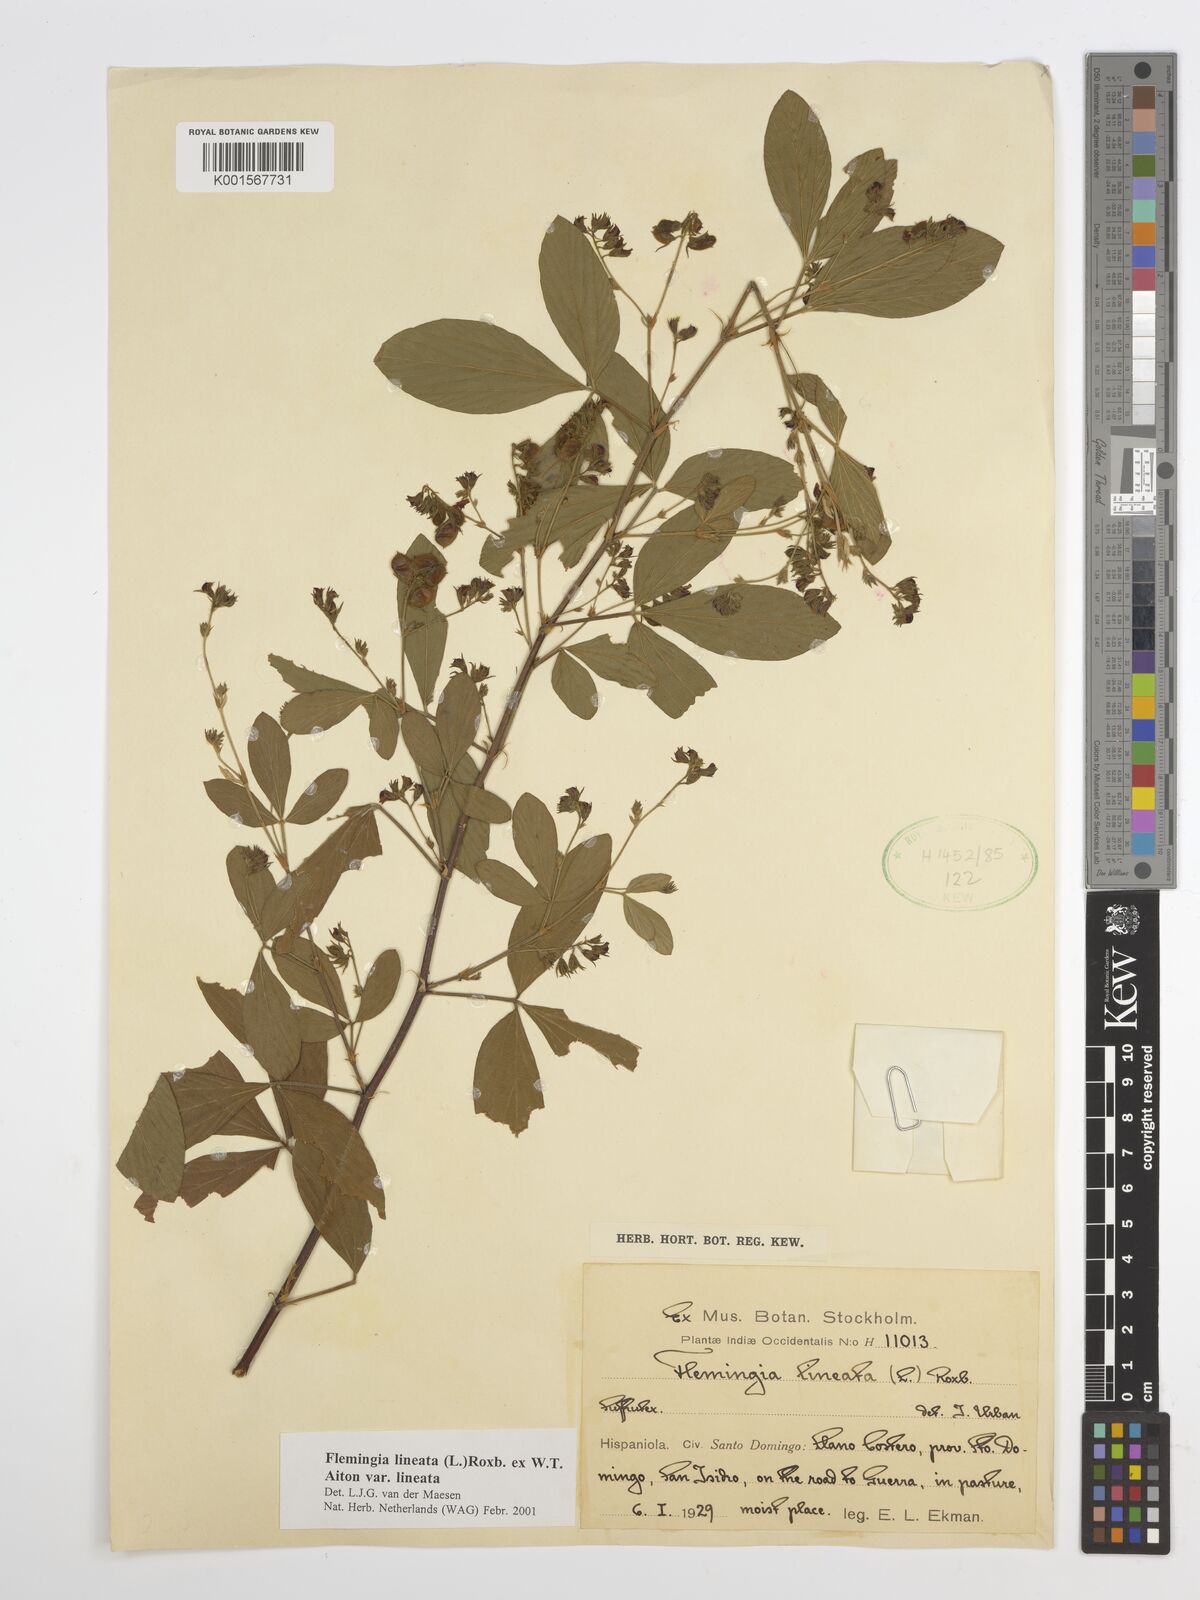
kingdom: Plantae
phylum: Tracheophyta
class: Magnoliopsida
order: Fabales
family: Fabaceae
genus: Flemingia
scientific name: Flemingia lineata
